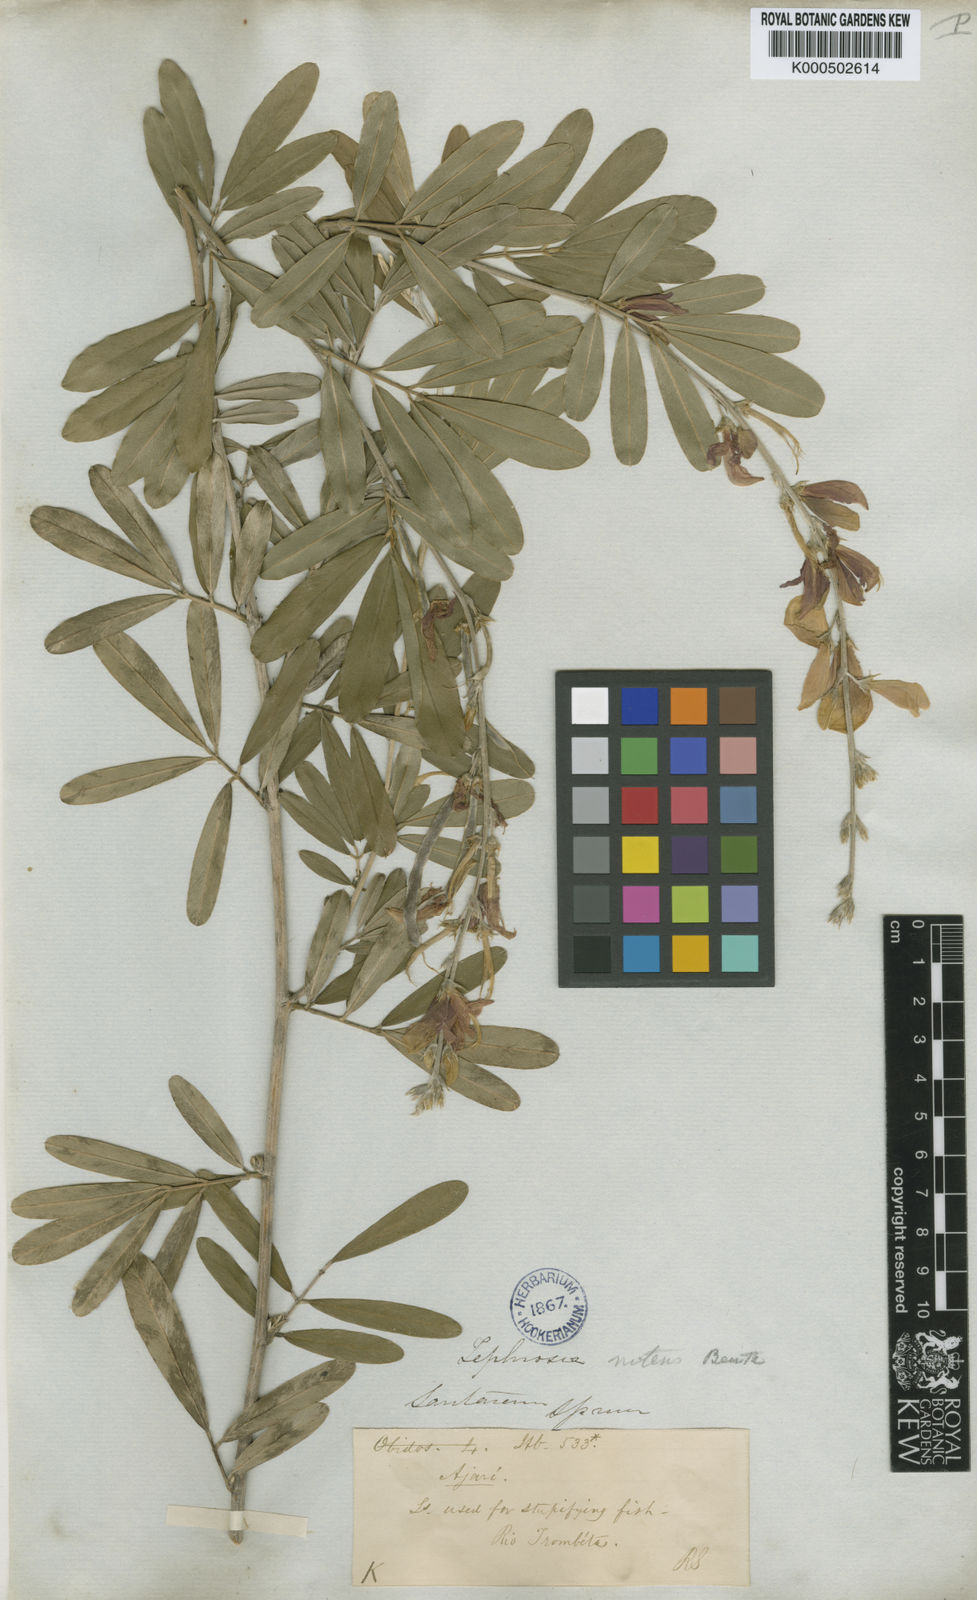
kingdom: Plantae
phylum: Tracheophyta
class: Magnoliopsida
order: Fabales
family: Fabaceae
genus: Tephrosia
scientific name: Tephrosia
